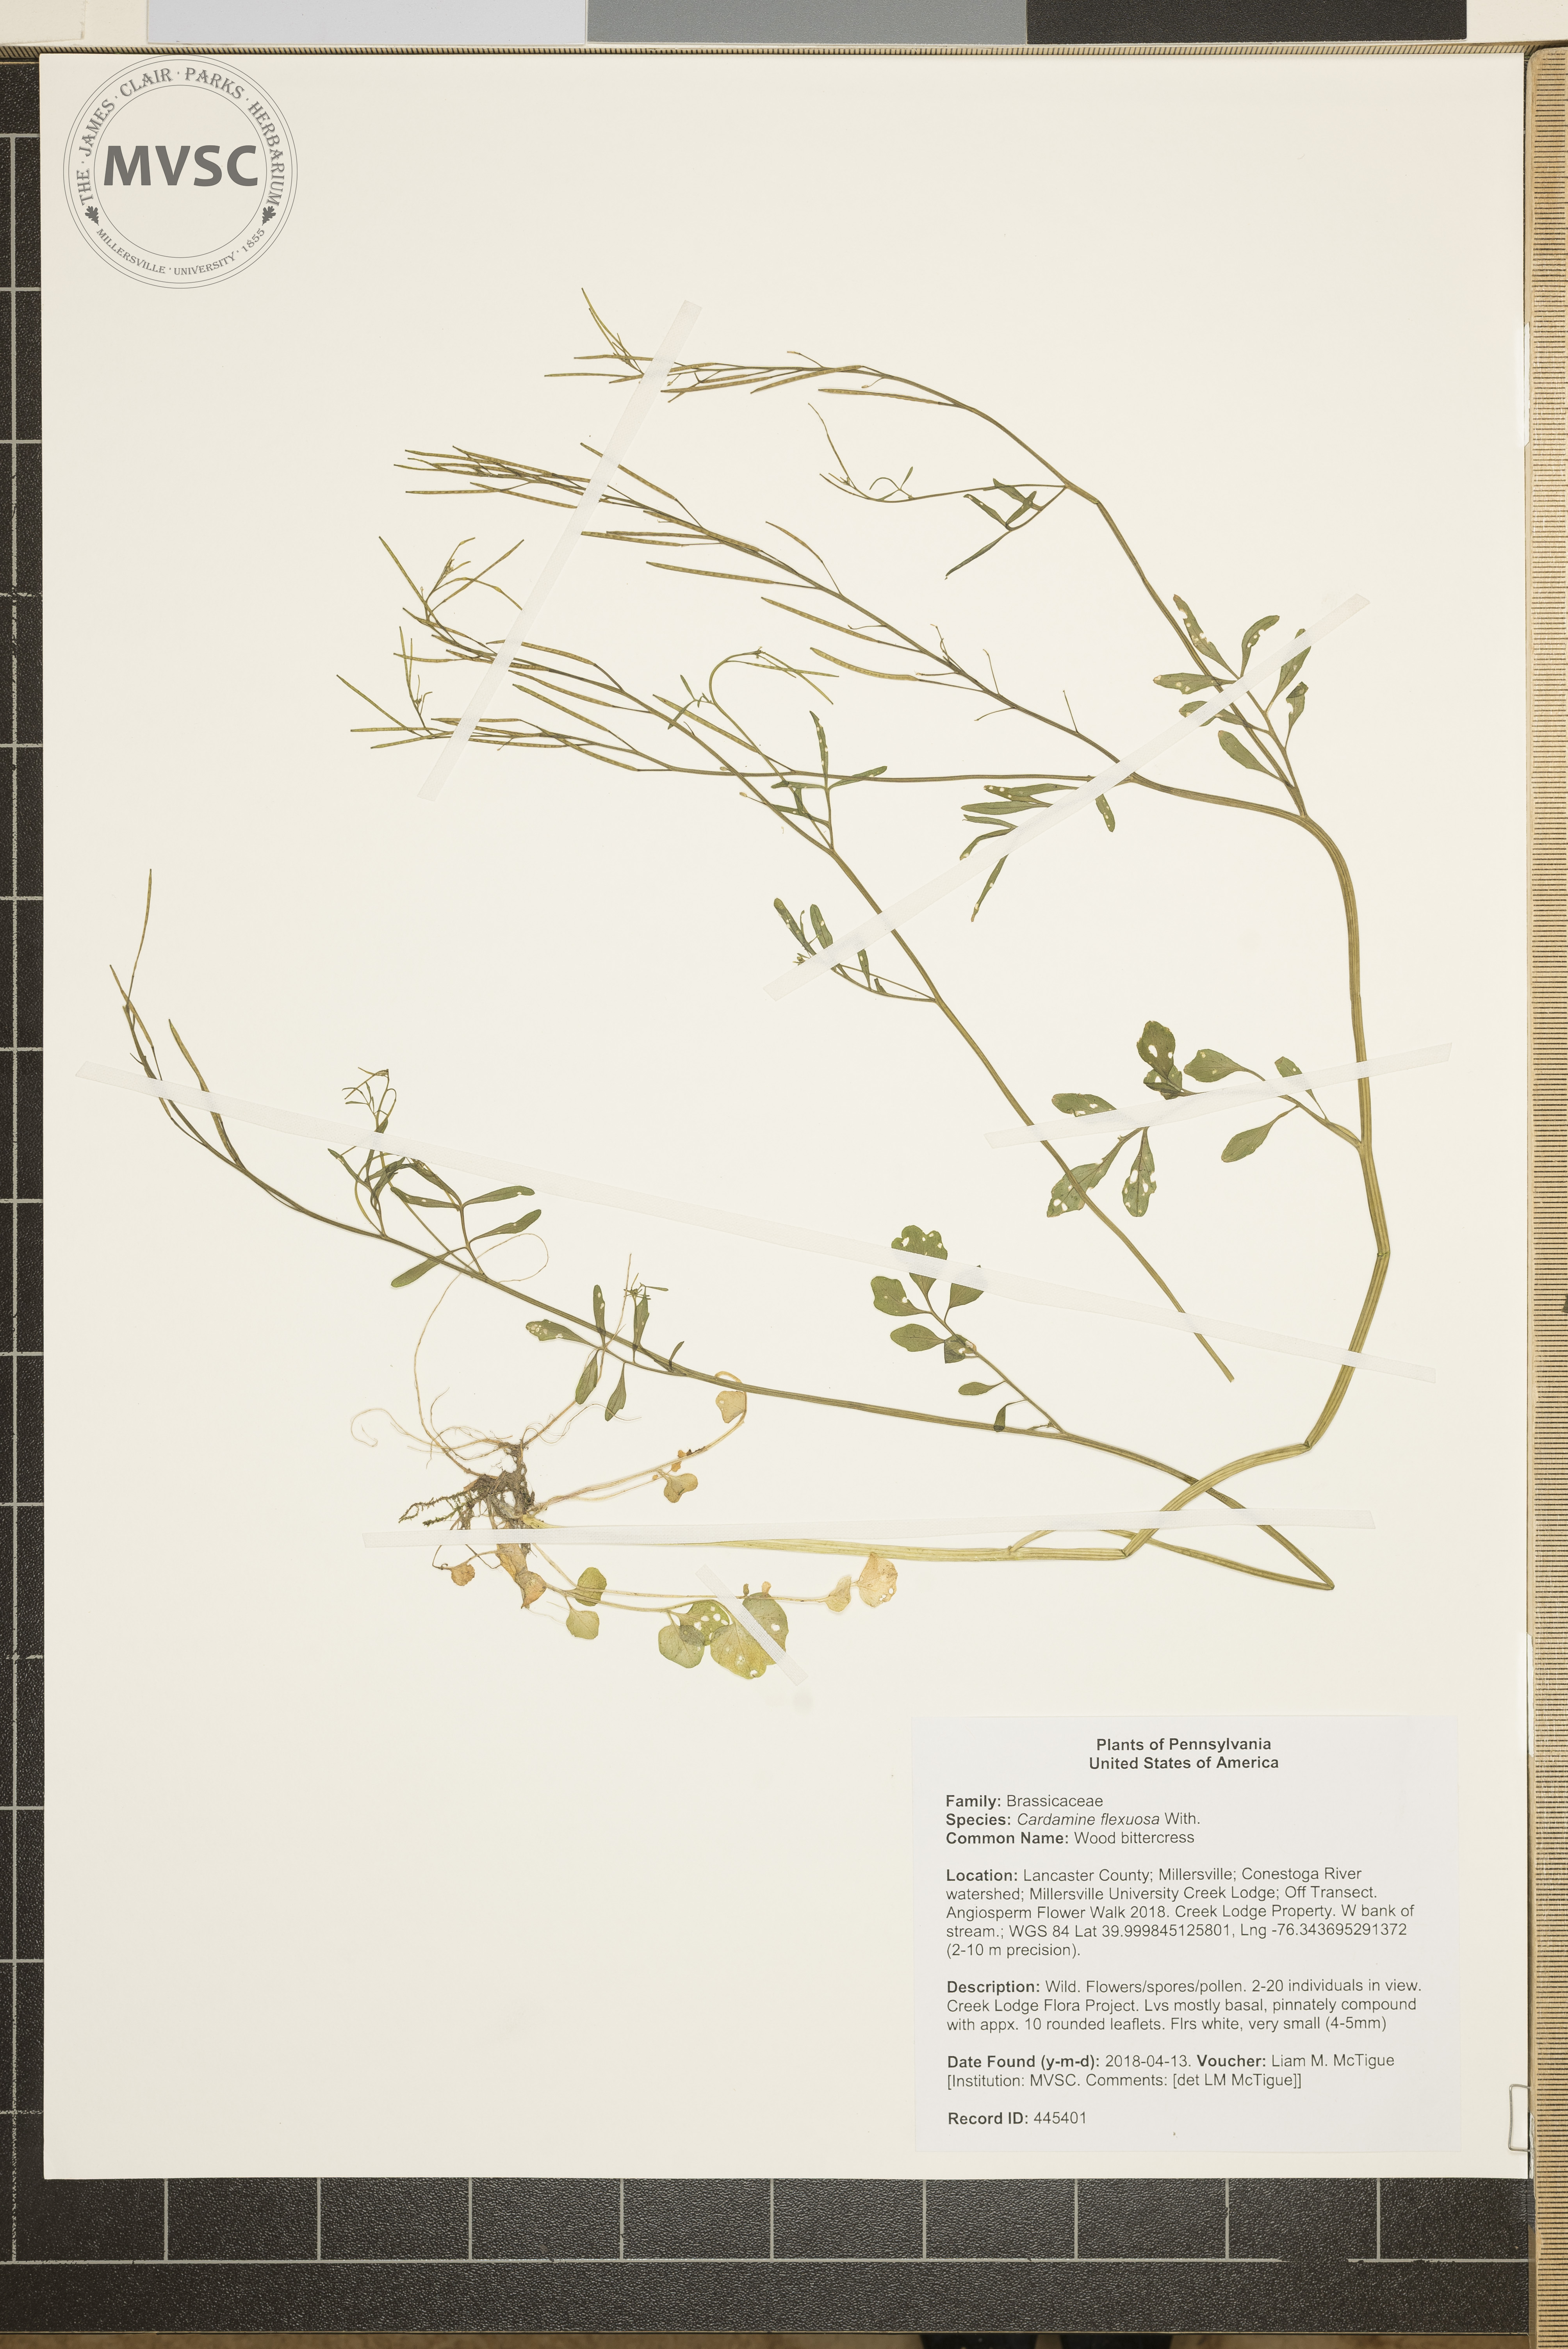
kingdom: Plantae
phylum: Tracheophyta
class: Magnoliopsida
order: Brassicales
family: Brassicaceae
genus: Cardamine
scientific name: Cardamine flexuosa
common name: Wood bittercress
